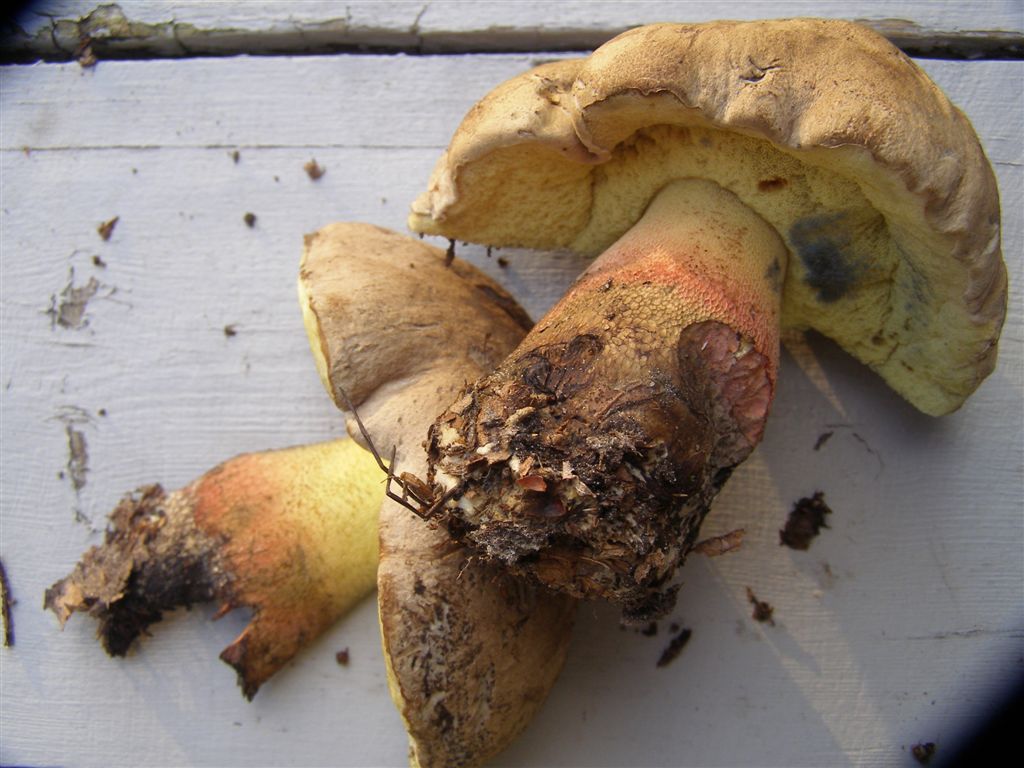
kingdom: Fungi
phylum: Basidiomycota
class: Agaricomycetes
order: Boletales
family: Boletaceae
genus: Caloboletus
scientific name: Caloboletus calopus
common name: skønfodet rørhat
